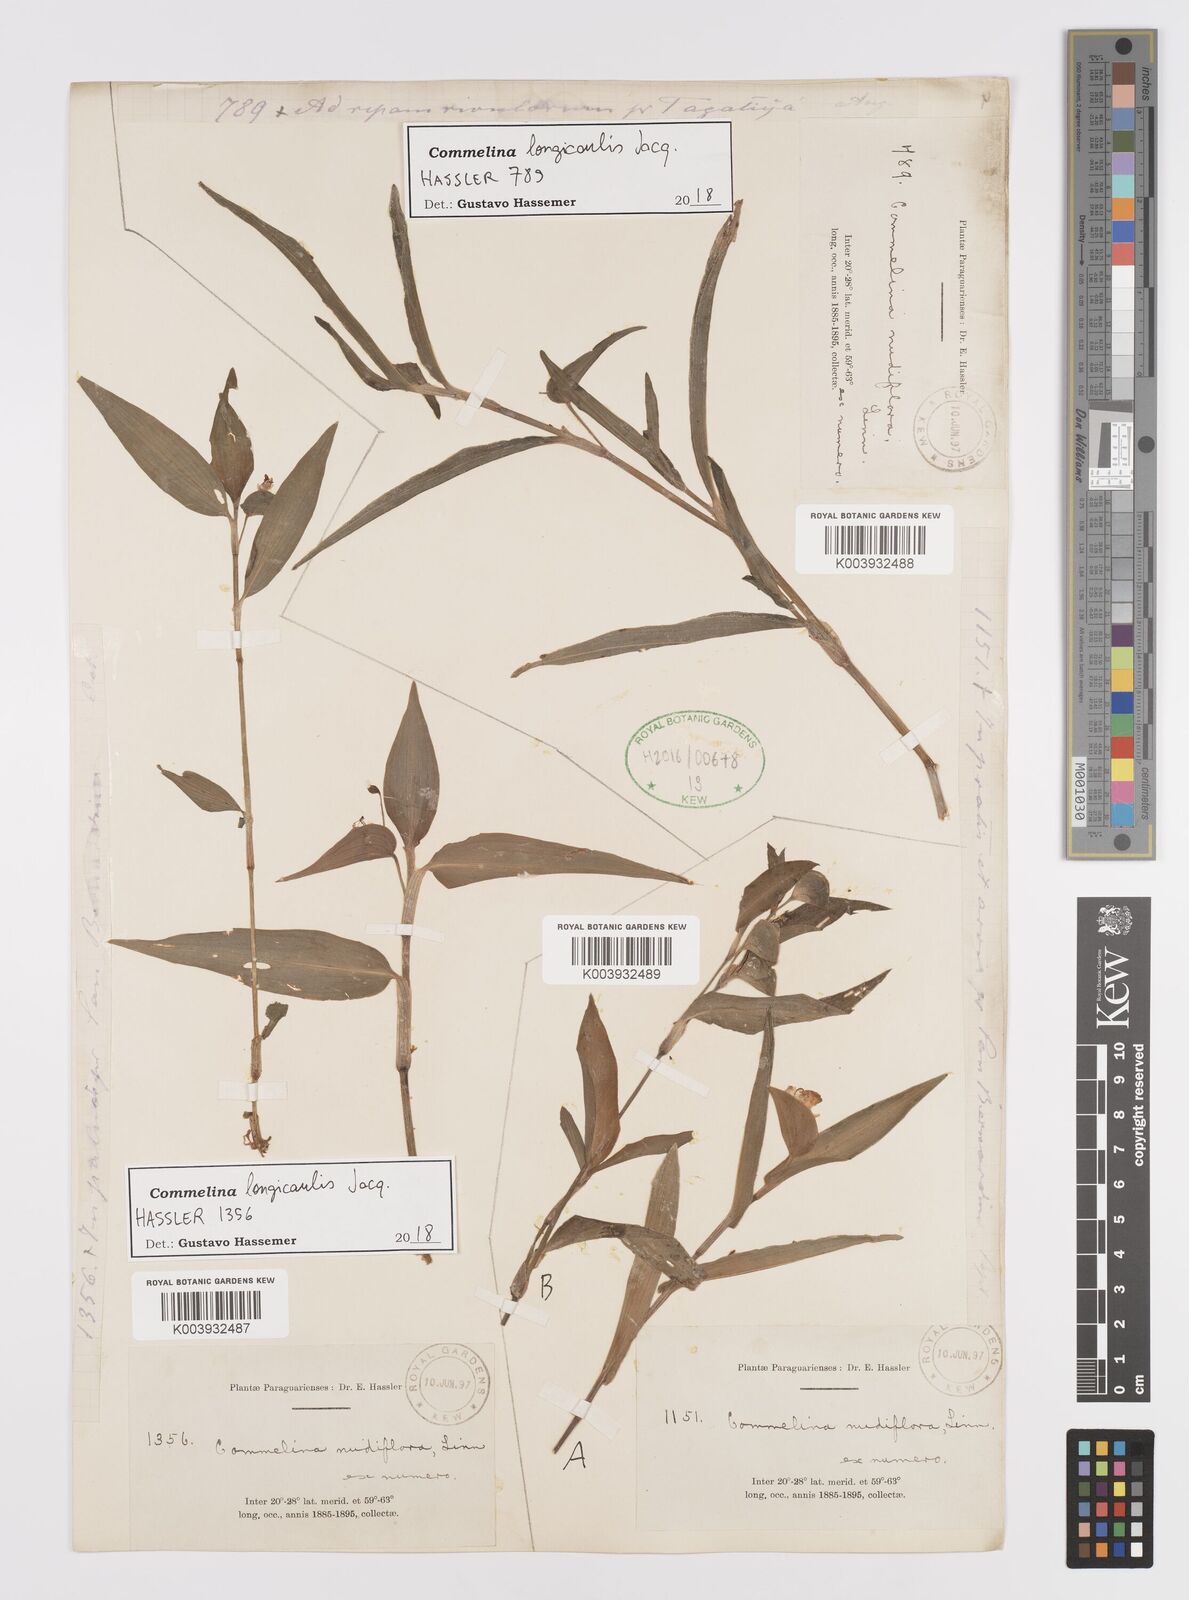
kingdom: Plantae
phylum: Tracheophyta
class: Liliopsida
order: Commelinales
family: Commelinaceae
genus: Commelina
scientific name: Commelina platyphylla
